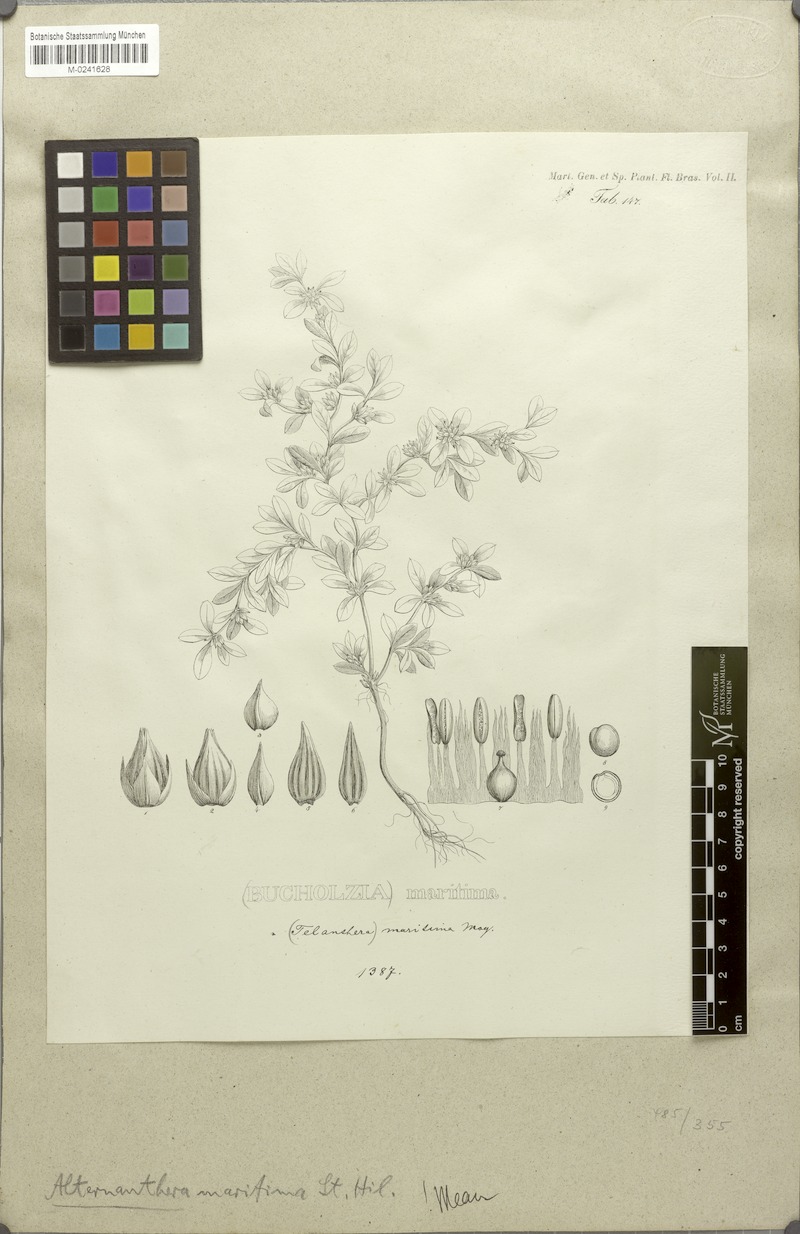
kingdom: Plantae
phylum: Tracheophyta
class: Magnoliopsida
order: Caryophyllales
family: Amaranthaceae
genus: Alternanthera
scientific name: Alternanthera littoralis
